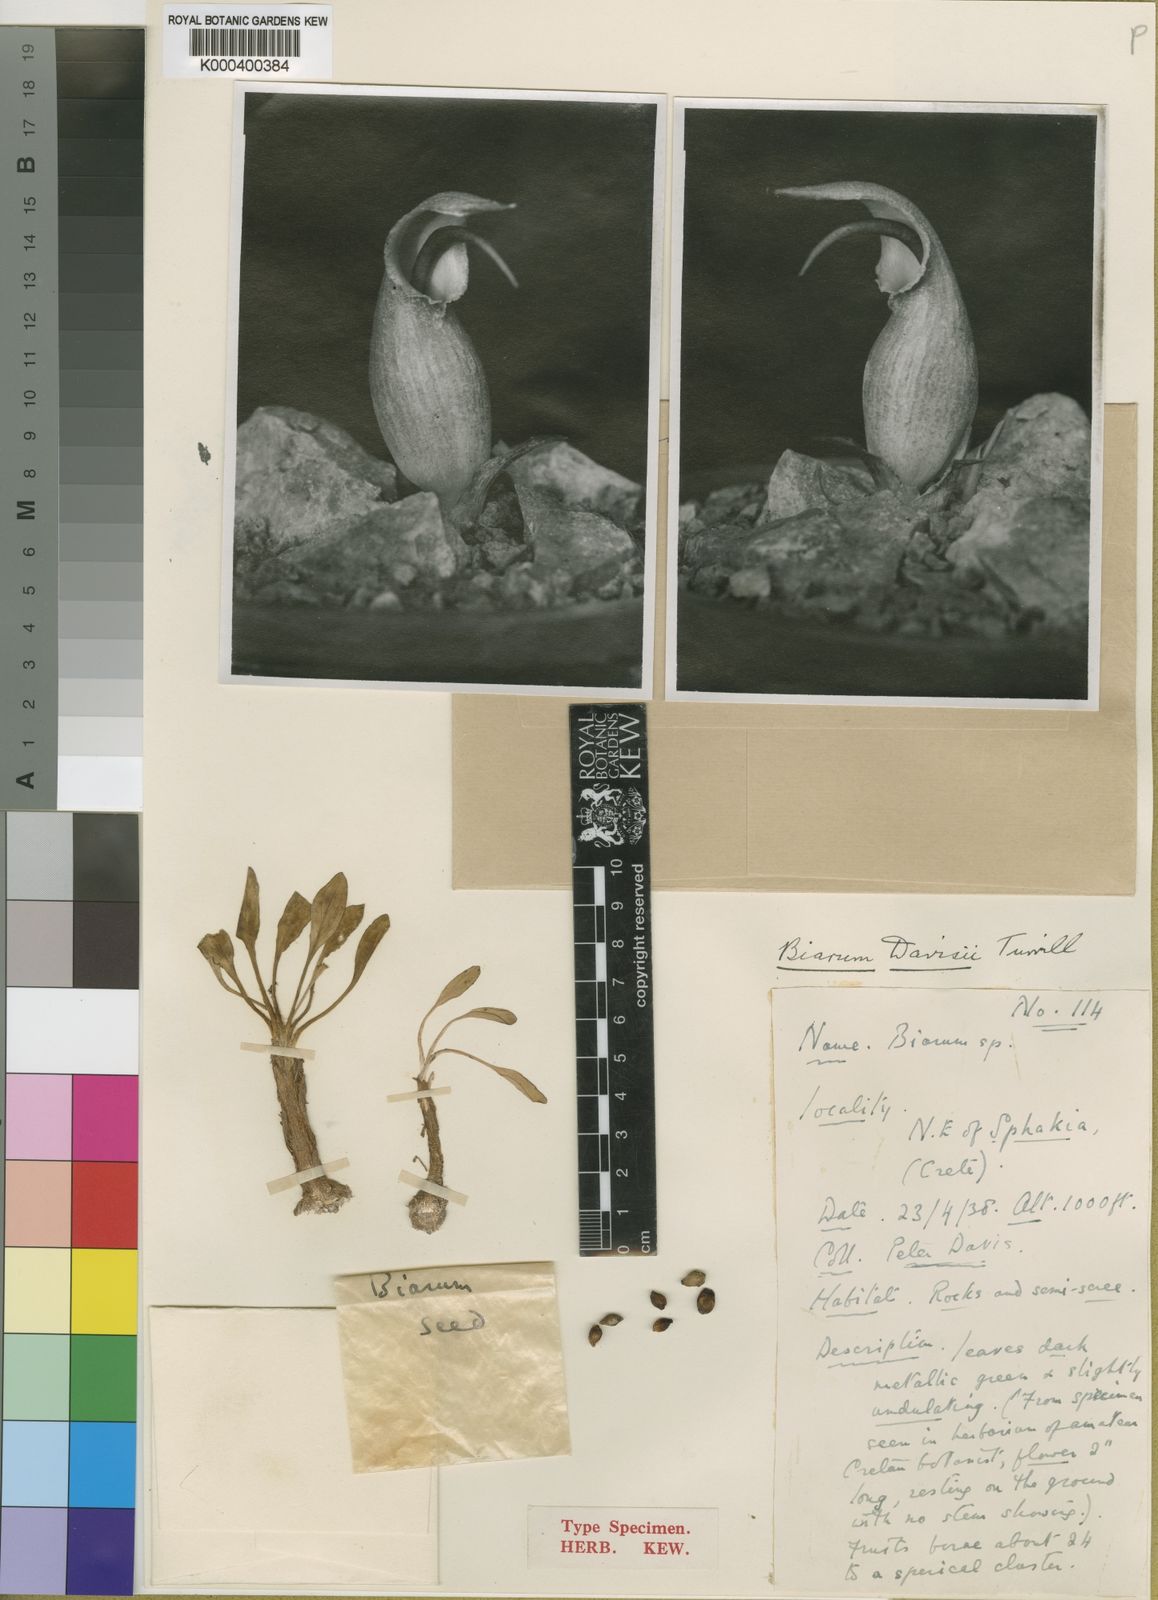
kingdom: Plantae
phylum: Tracheophyta
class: Liliopsida
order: Alismatales
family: Araceae
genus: Biarum
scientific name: Biarum davisii
